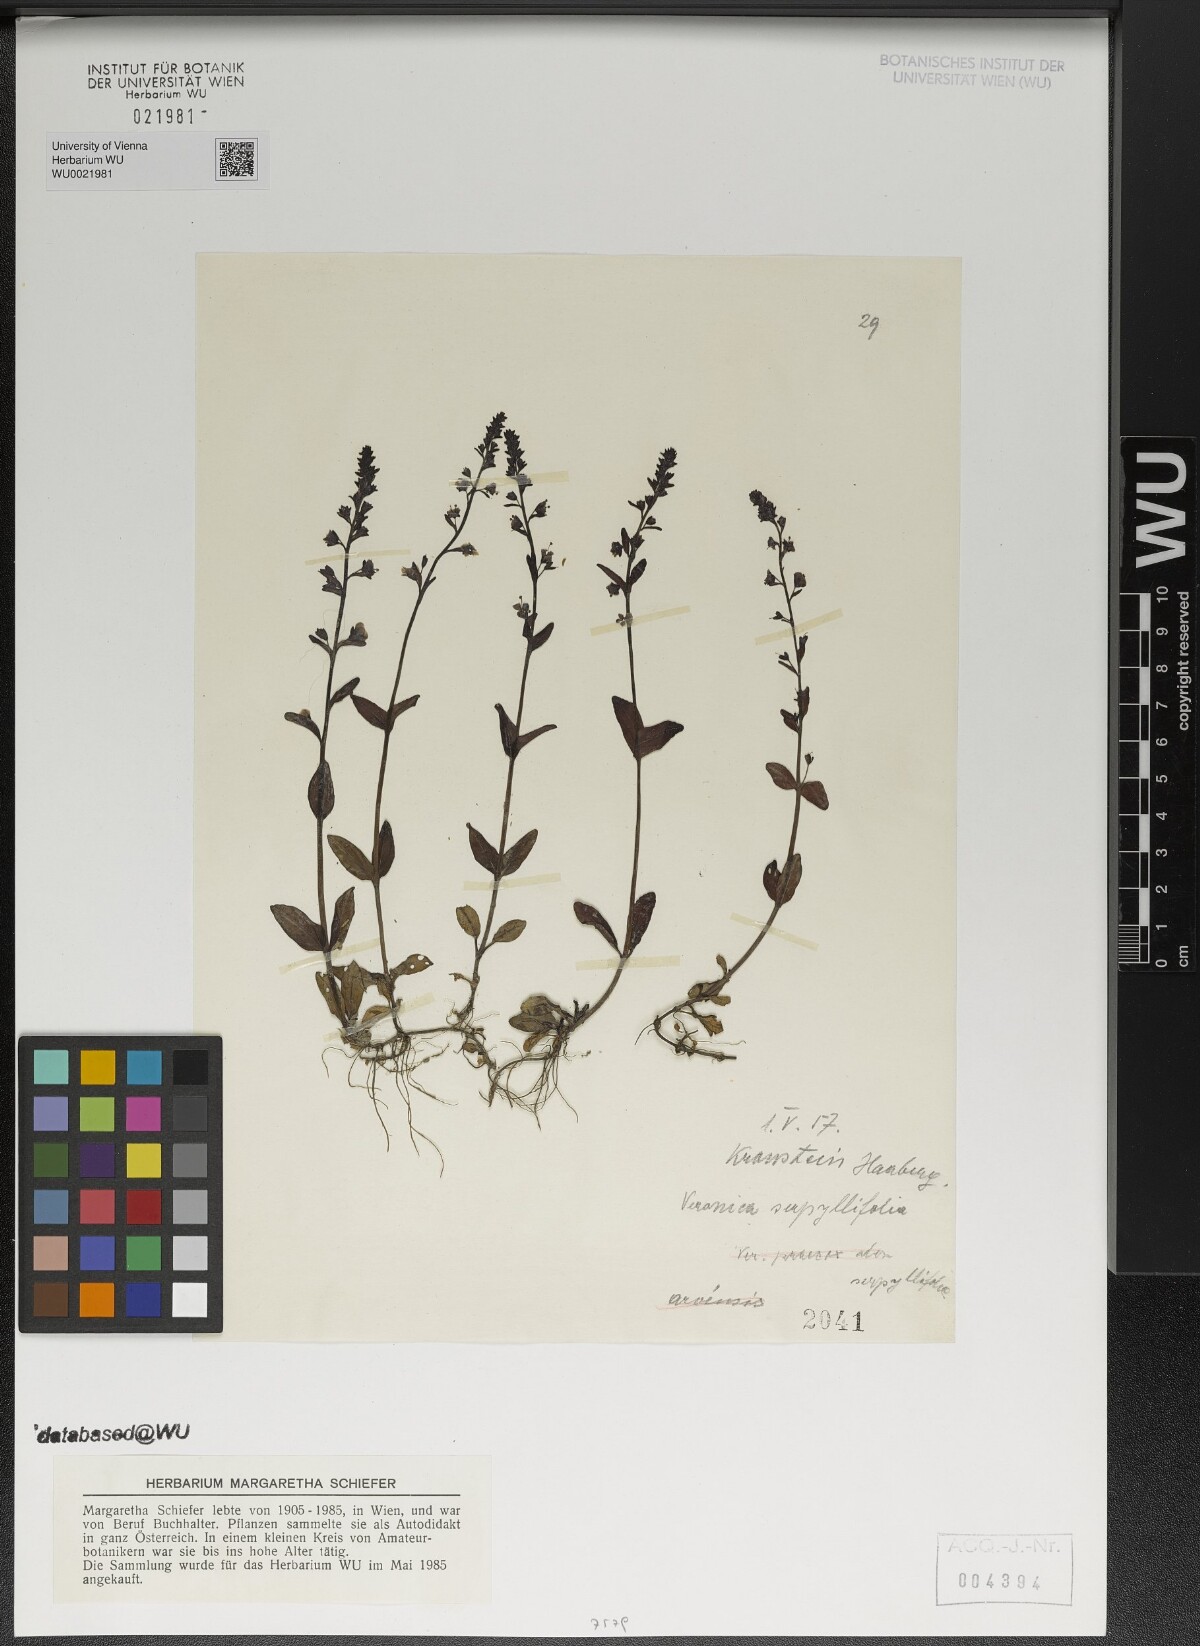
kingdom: Plantae
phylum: Tracheophyta
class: Magnoliopsida
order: Lamiales
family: Plantaginaceae
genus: Veronica
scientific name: Veronica serpyllifolia
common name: Thyme-leaved speedwell
